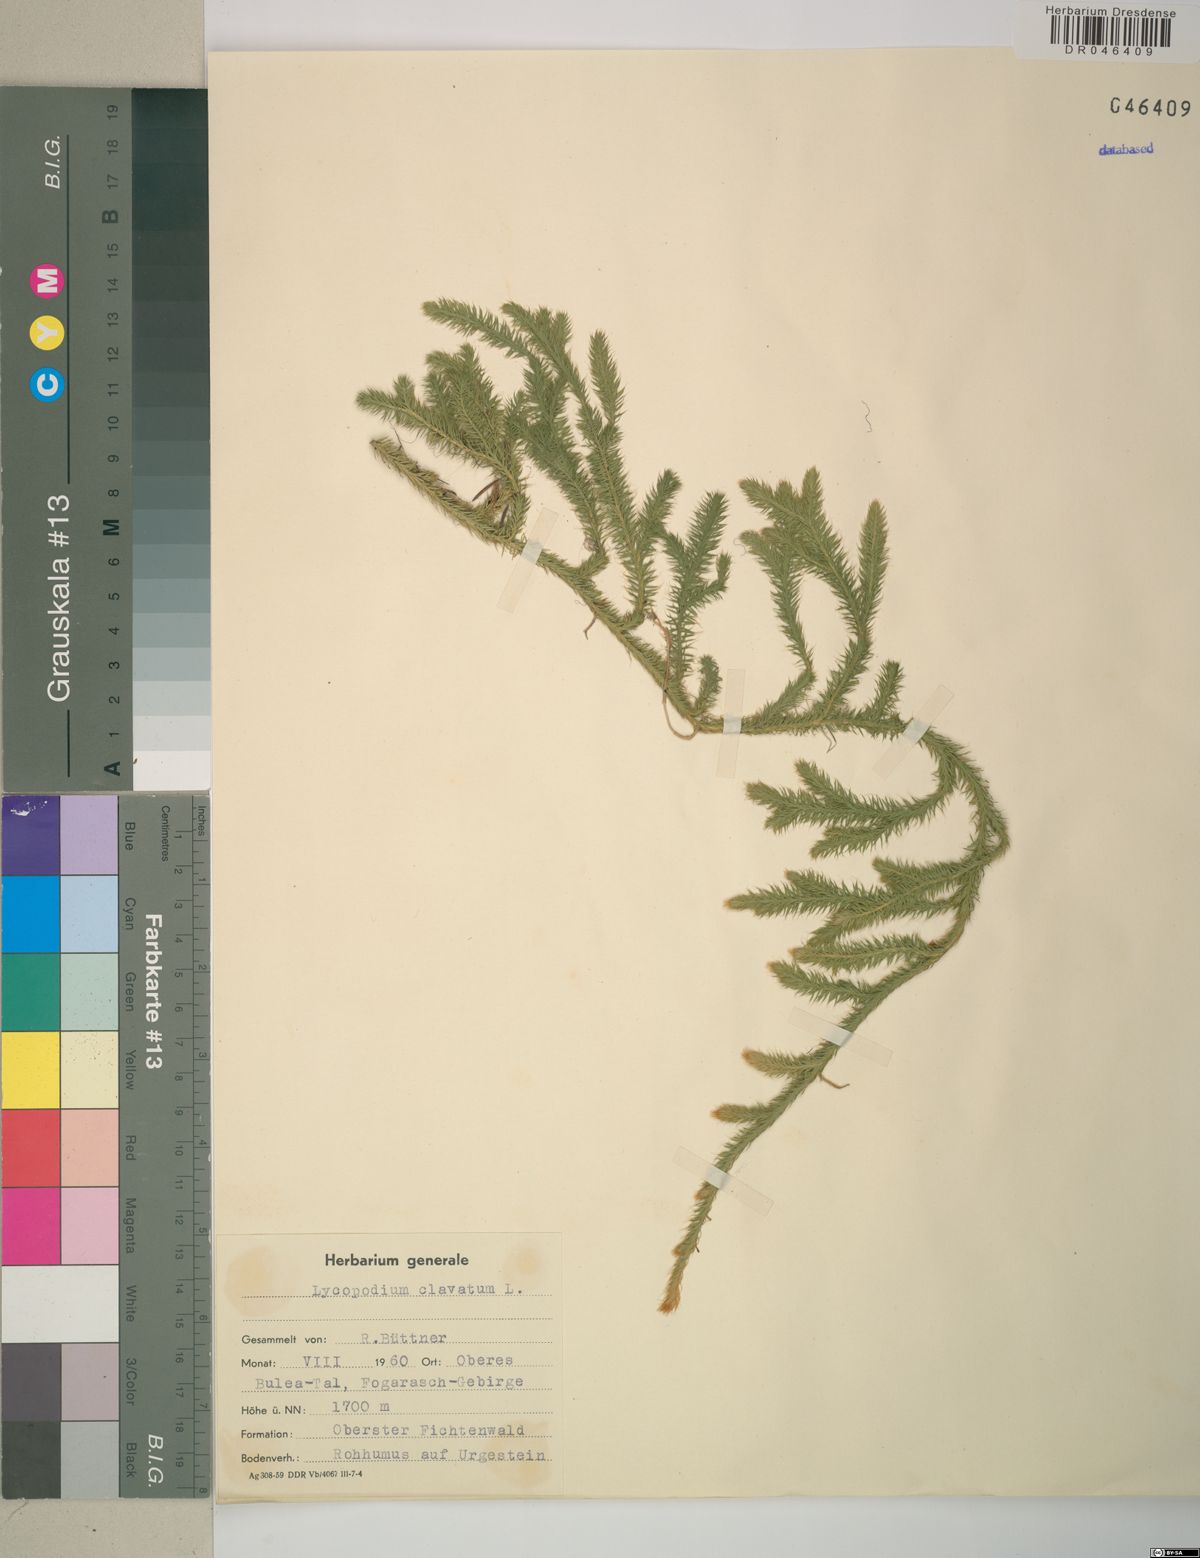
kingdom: Plantae
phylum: Tracheophyta
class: Lycopodiopsida
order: Lycopodiales
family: Lycopodiaceae
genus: Lycopodium
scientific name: Lycopodium clavatum
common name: Stag's-horn clubmoss
